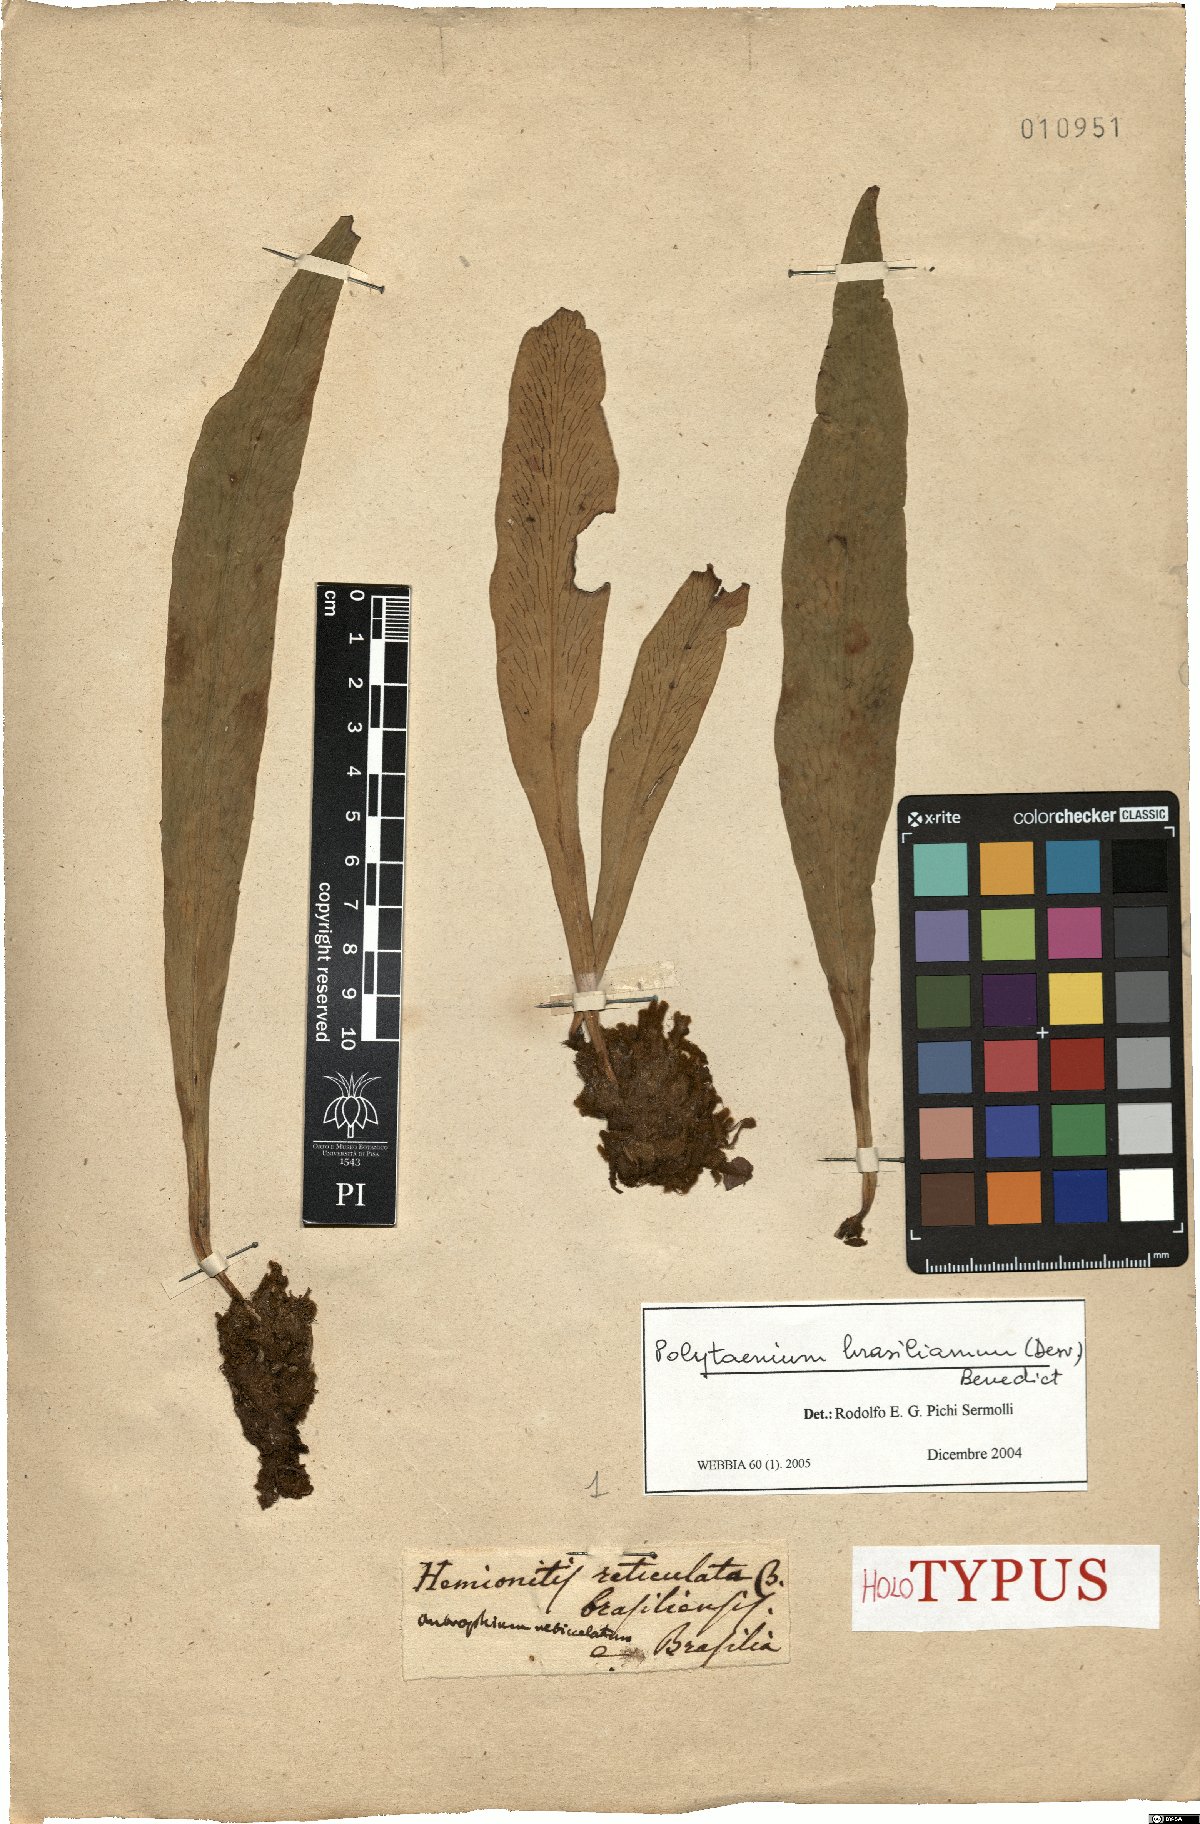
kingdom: Plantae
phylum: Tracheophyta
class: Polypodiopsida
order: Polypodiales
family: Pteridaceae
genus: Polytaenium
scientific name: Polytaenium cajenense
